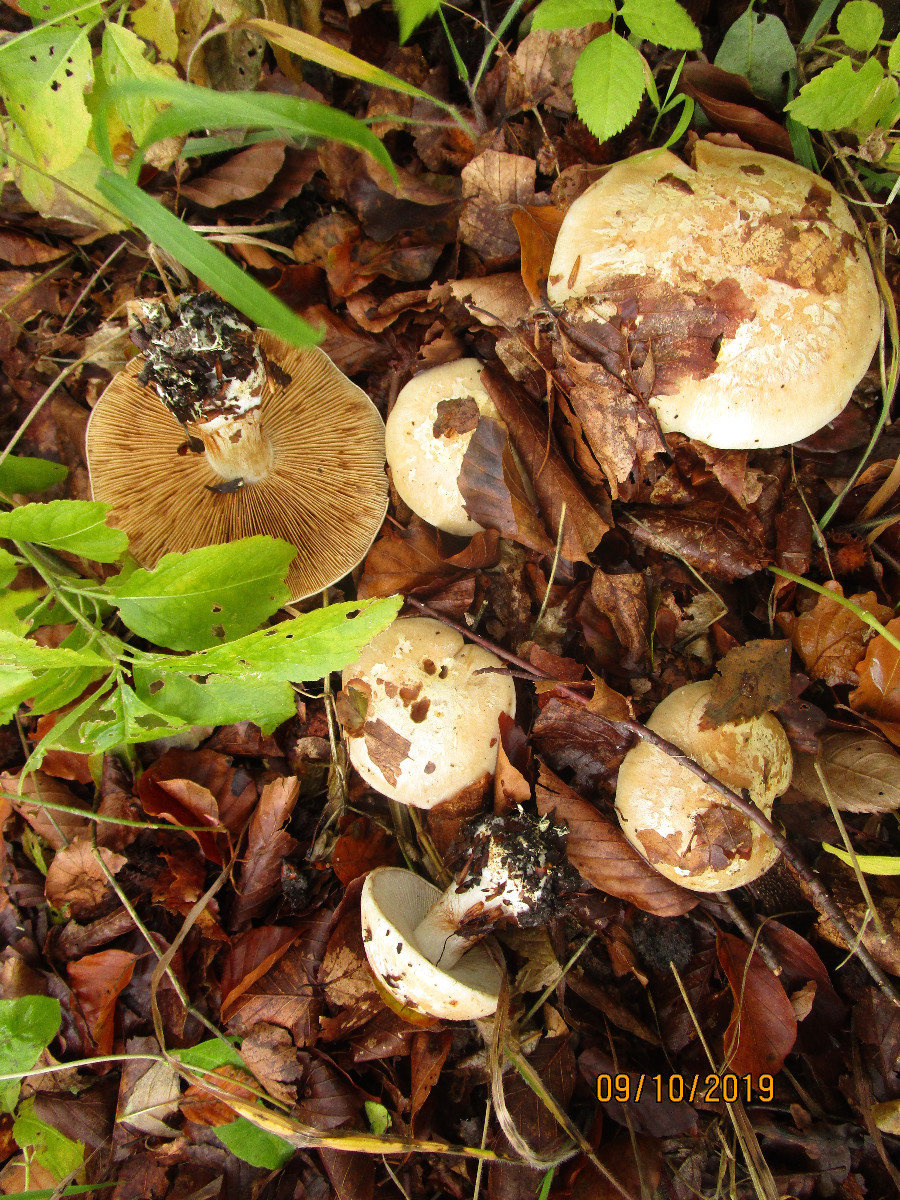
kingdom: Fungi
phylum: Basidiomycota
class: Agaricomycetes
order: Agaricales
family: Cortinariaceae
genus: Cortinarius
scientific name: Cortinarius foetens
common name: stribet slørhat
